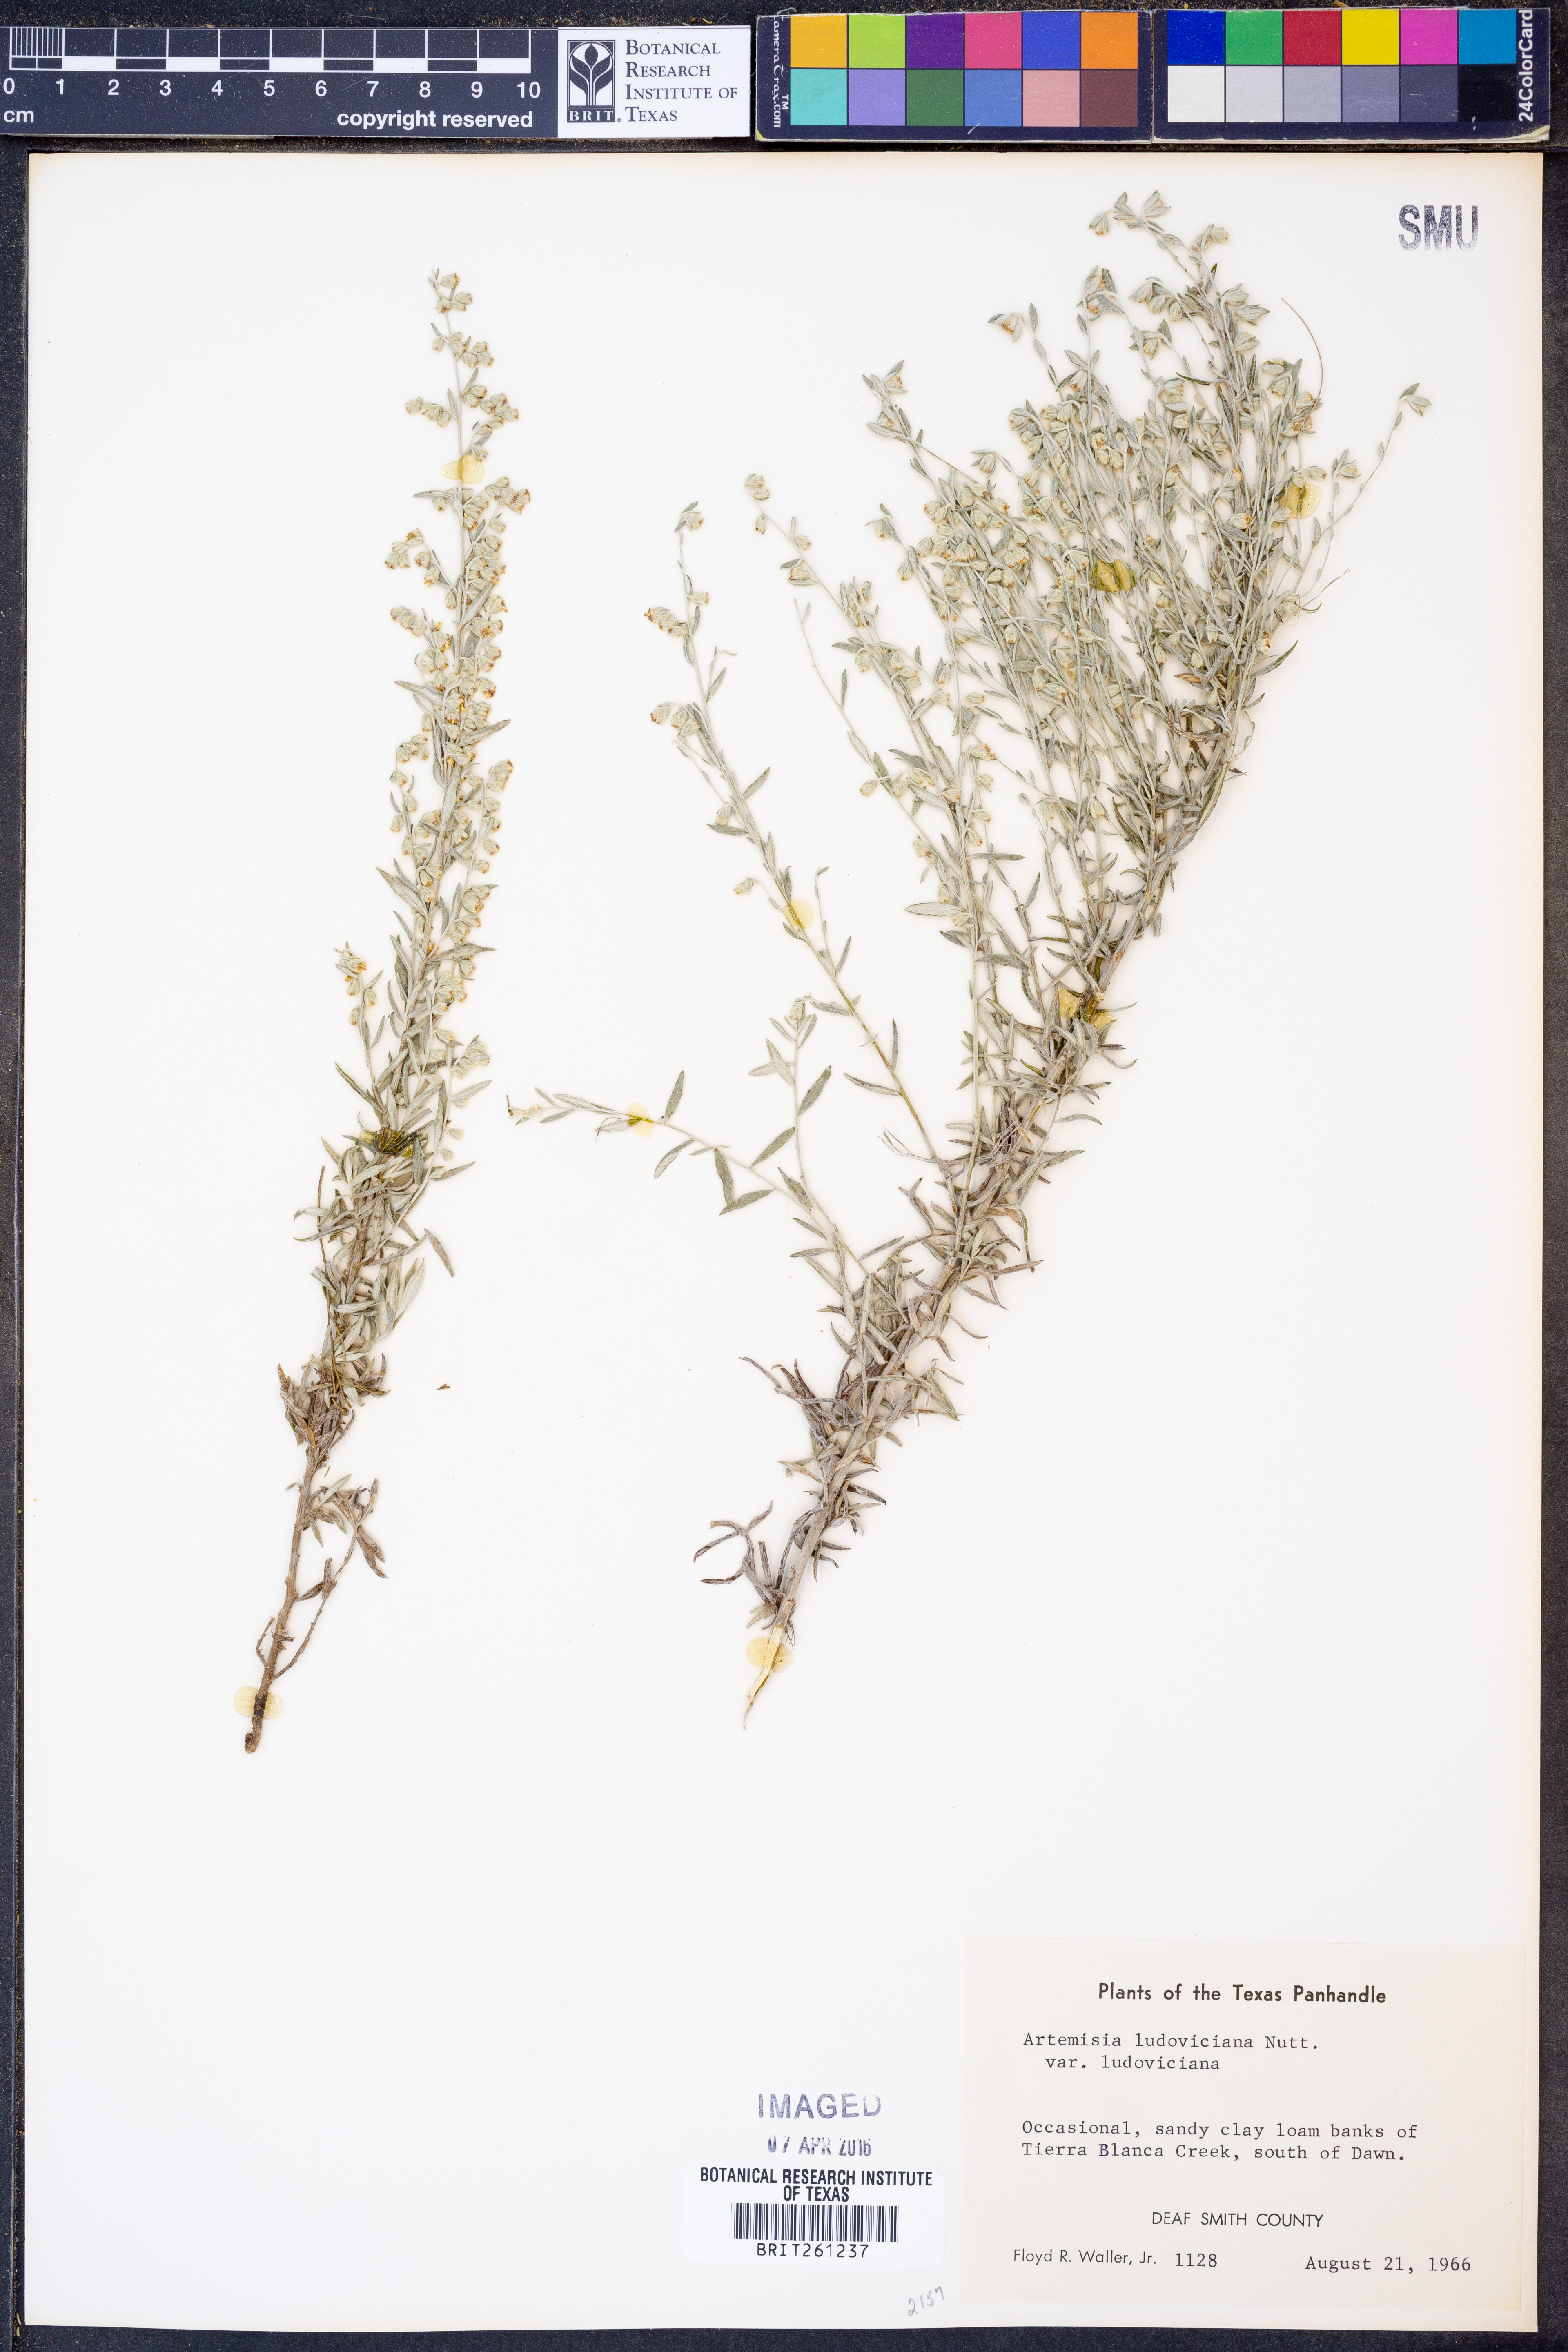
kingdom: Plantae
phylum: Tracheophyta
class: Magnoliopsida
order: Asterales
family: Asteraceae
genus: Artemisia
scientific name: Artemisia ludoviciana
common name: Western mugwort
